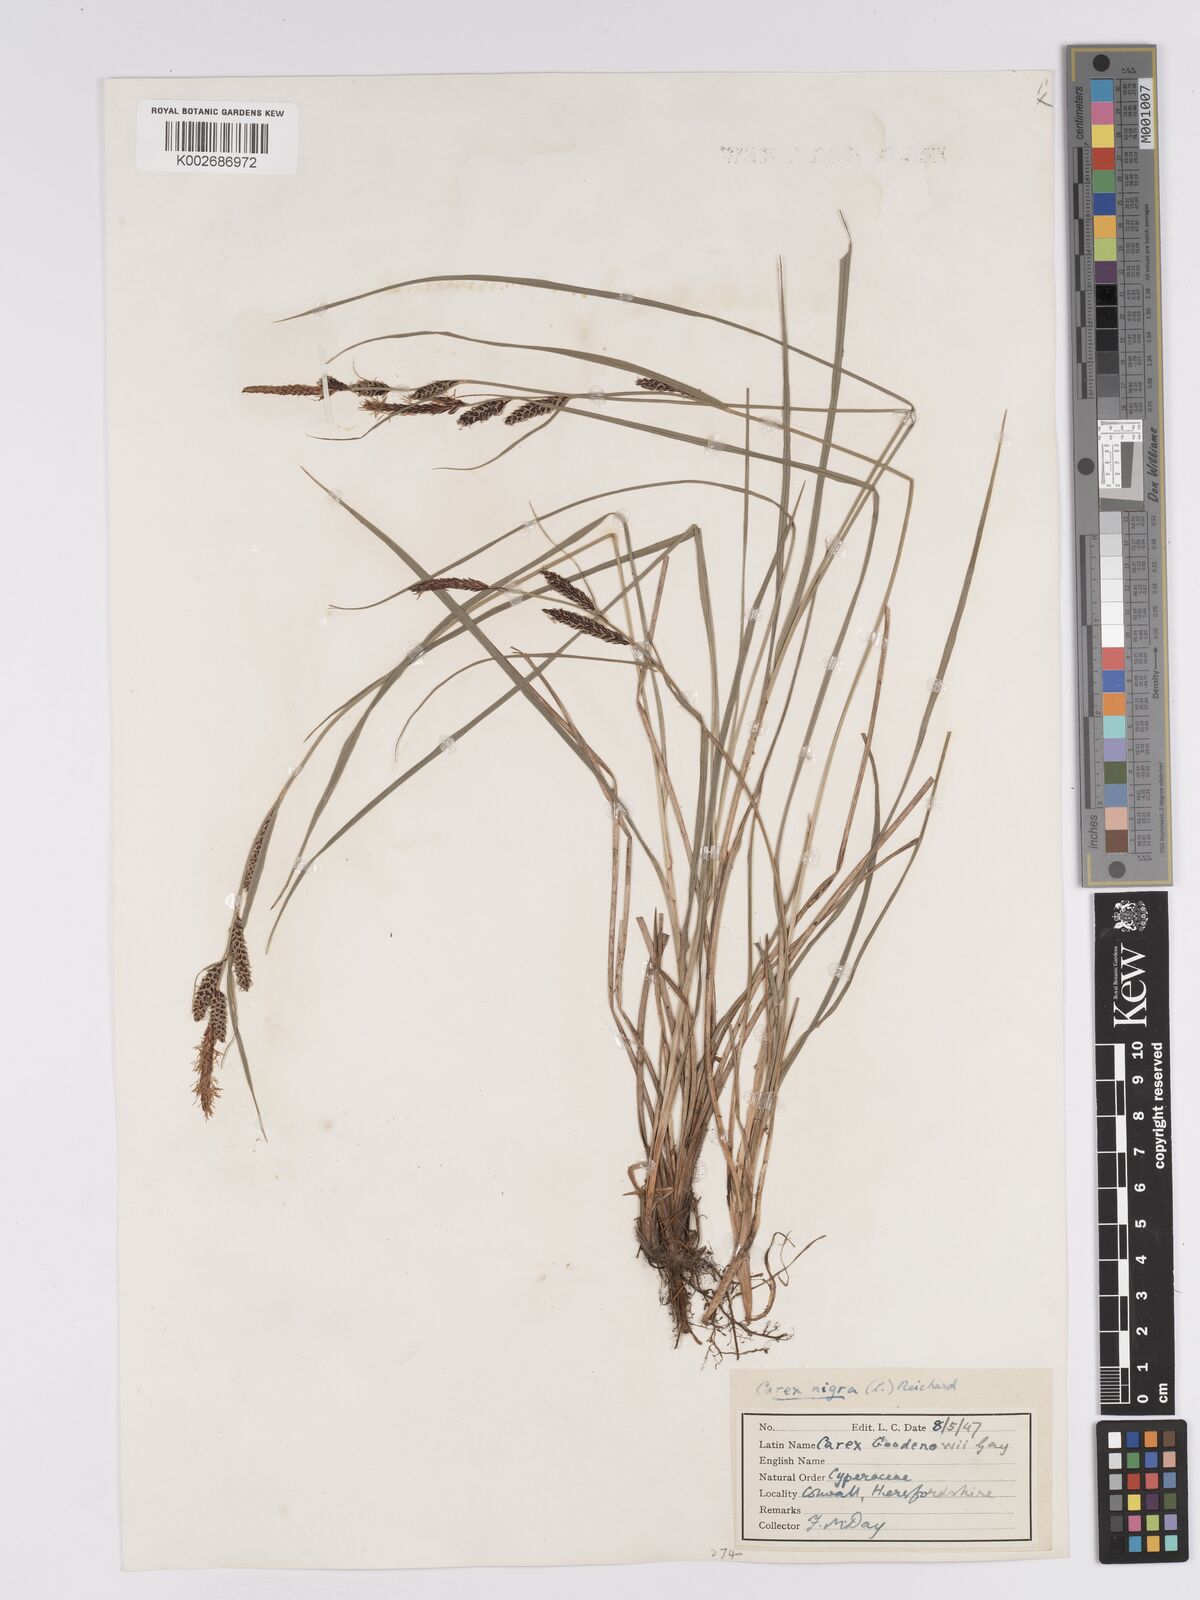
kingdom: Plantae
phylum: Tracheophyta
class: Liliopsida
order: Poales
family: Cyperaceae
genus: Carex
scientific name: Carex nigra
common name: Common sedge
